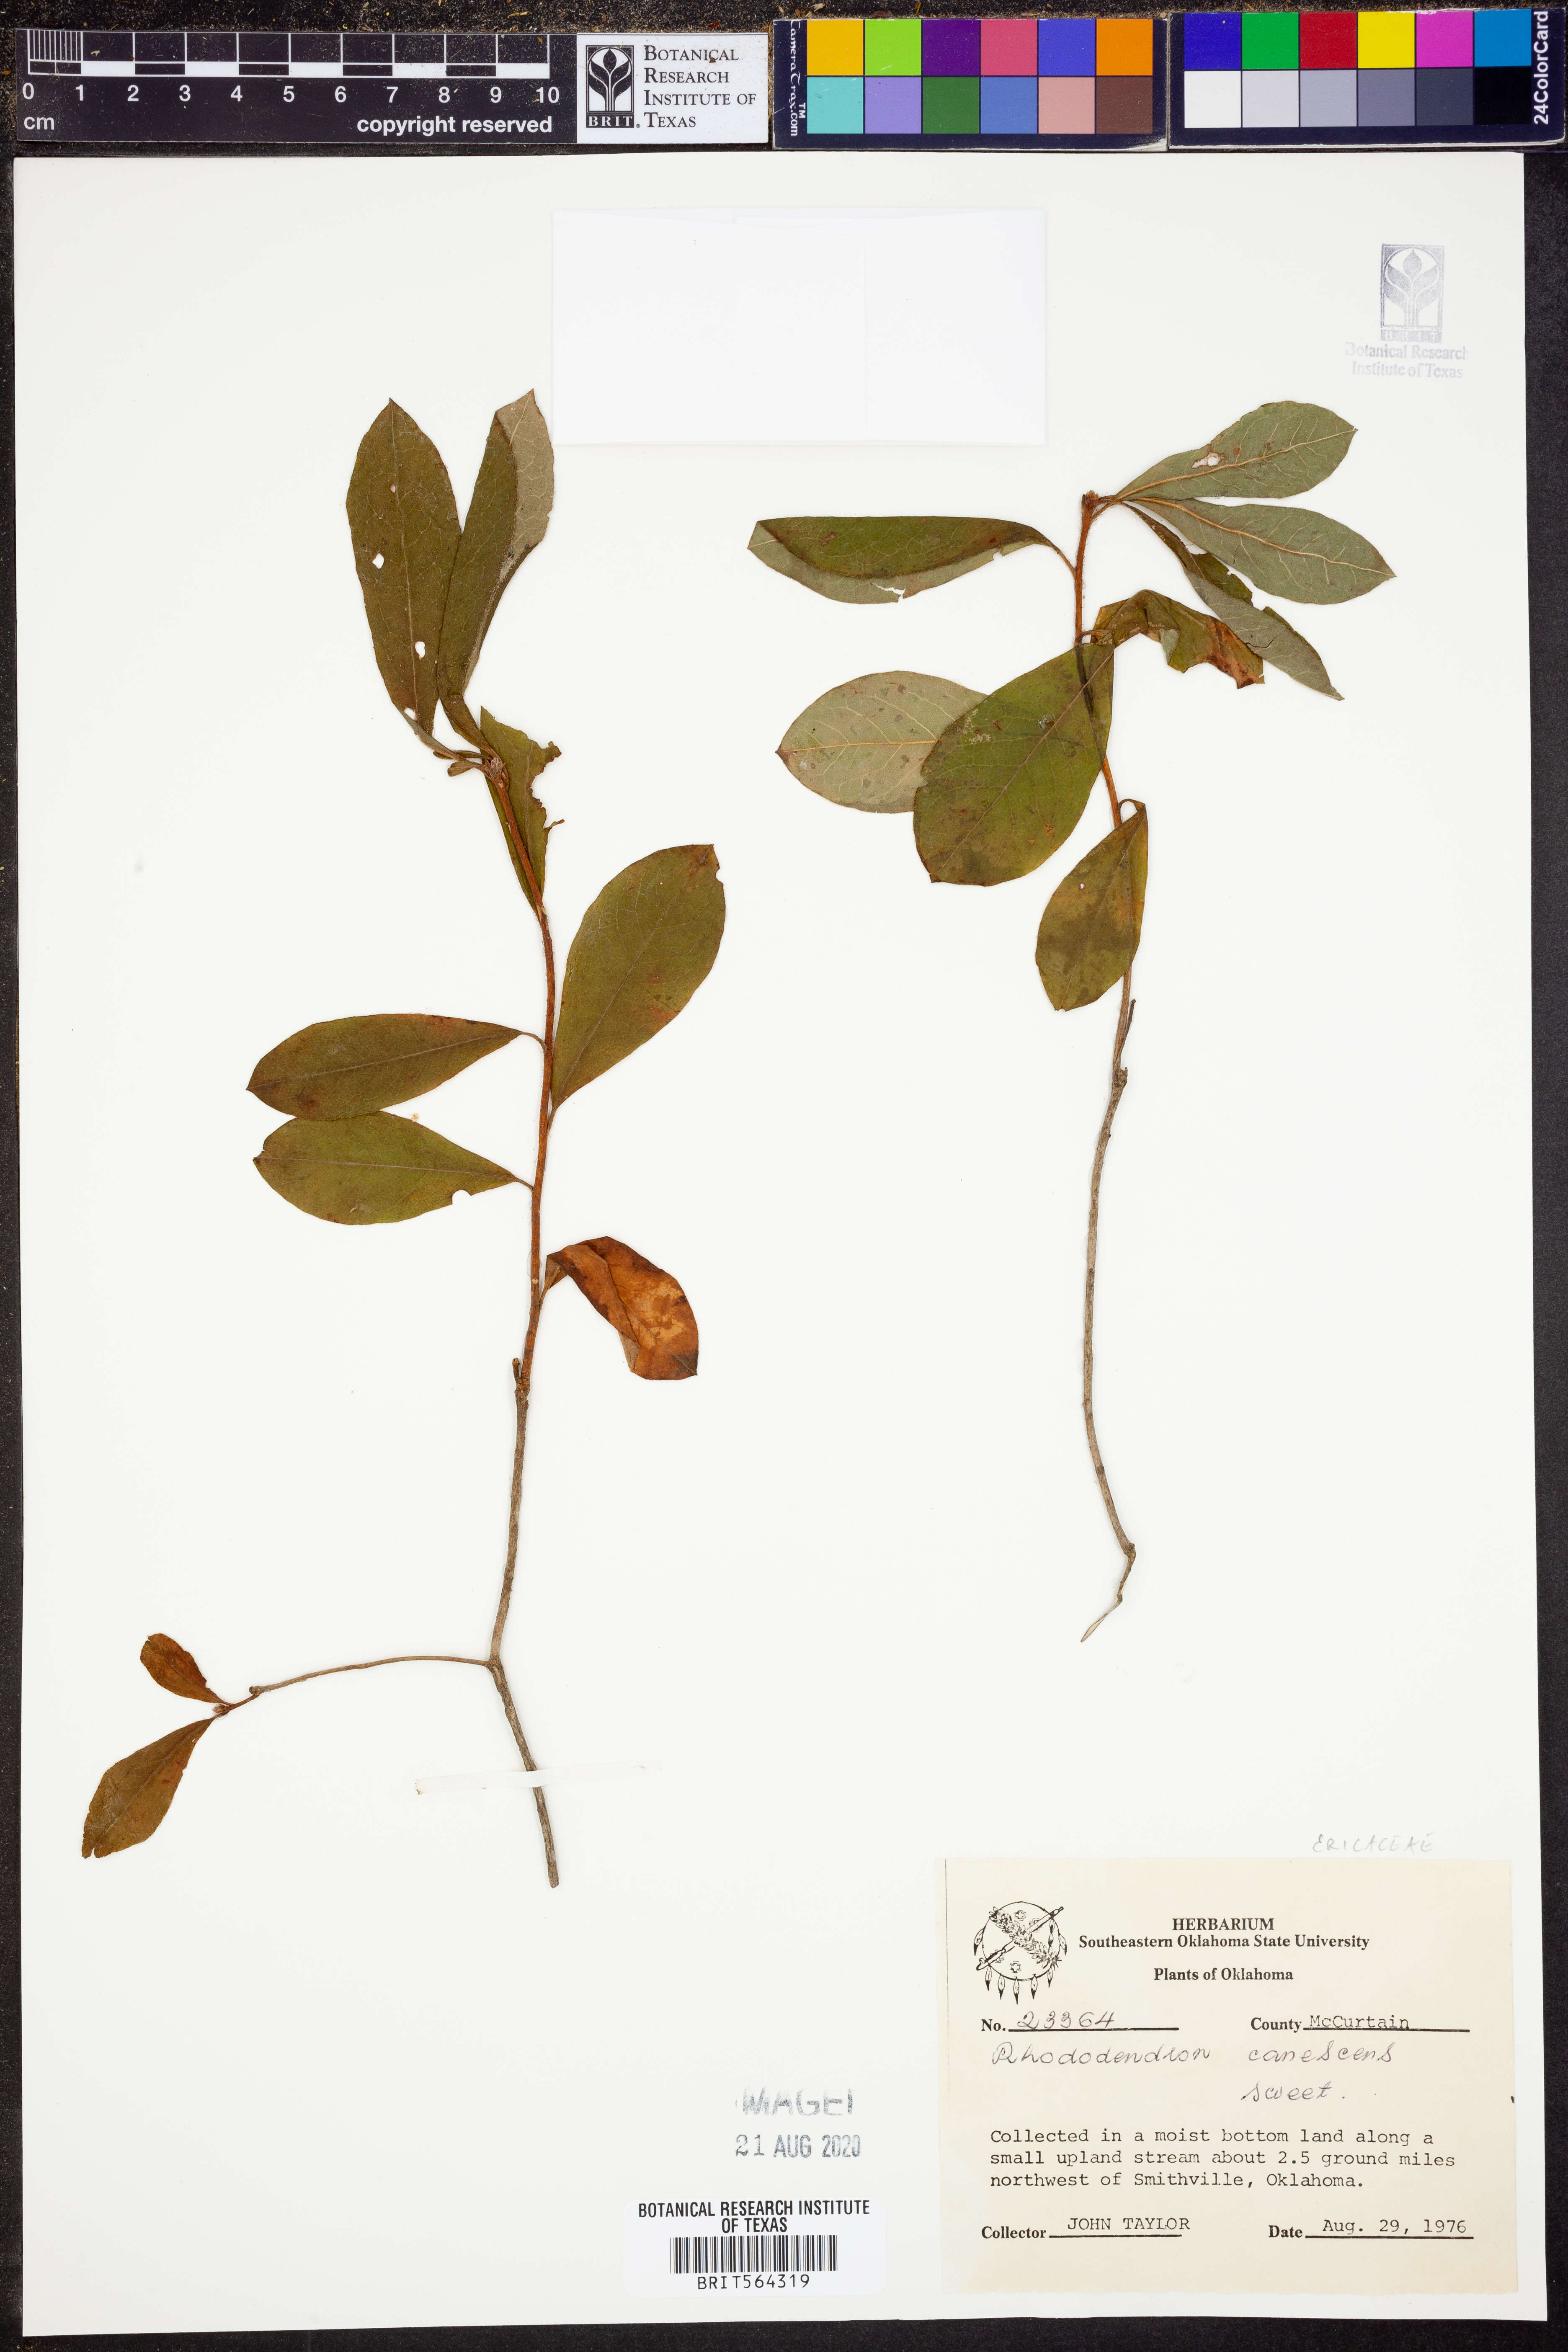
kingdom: Plantae
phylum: Tracheophyta
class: Magnoliopsida
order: Ericales
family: Ericaceae
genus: Rhododendron
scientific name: Rhododendron canescens
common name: Mountain azalea
